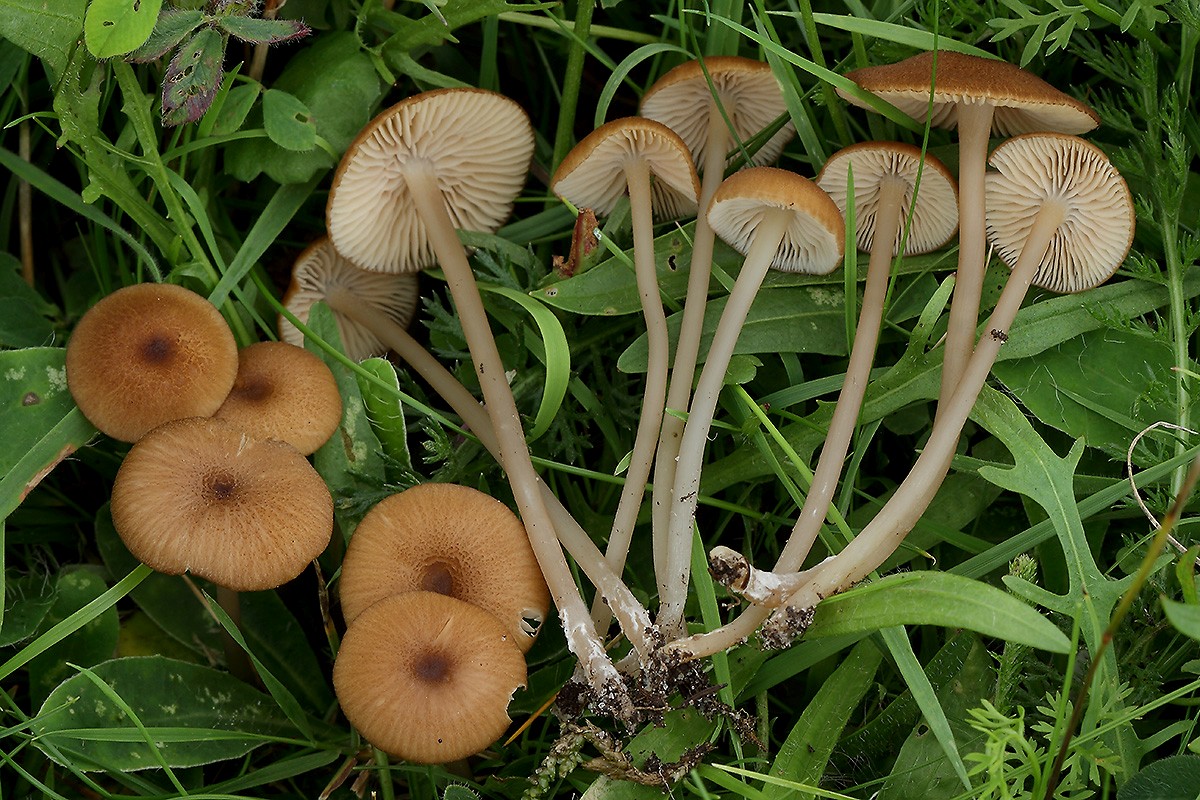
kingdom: Fungi
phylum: Basidiomycota
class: Agaricomycetes
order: Agaricales
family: Entolomataceae
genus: Entoloma
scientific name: Entoloma longistriatum
